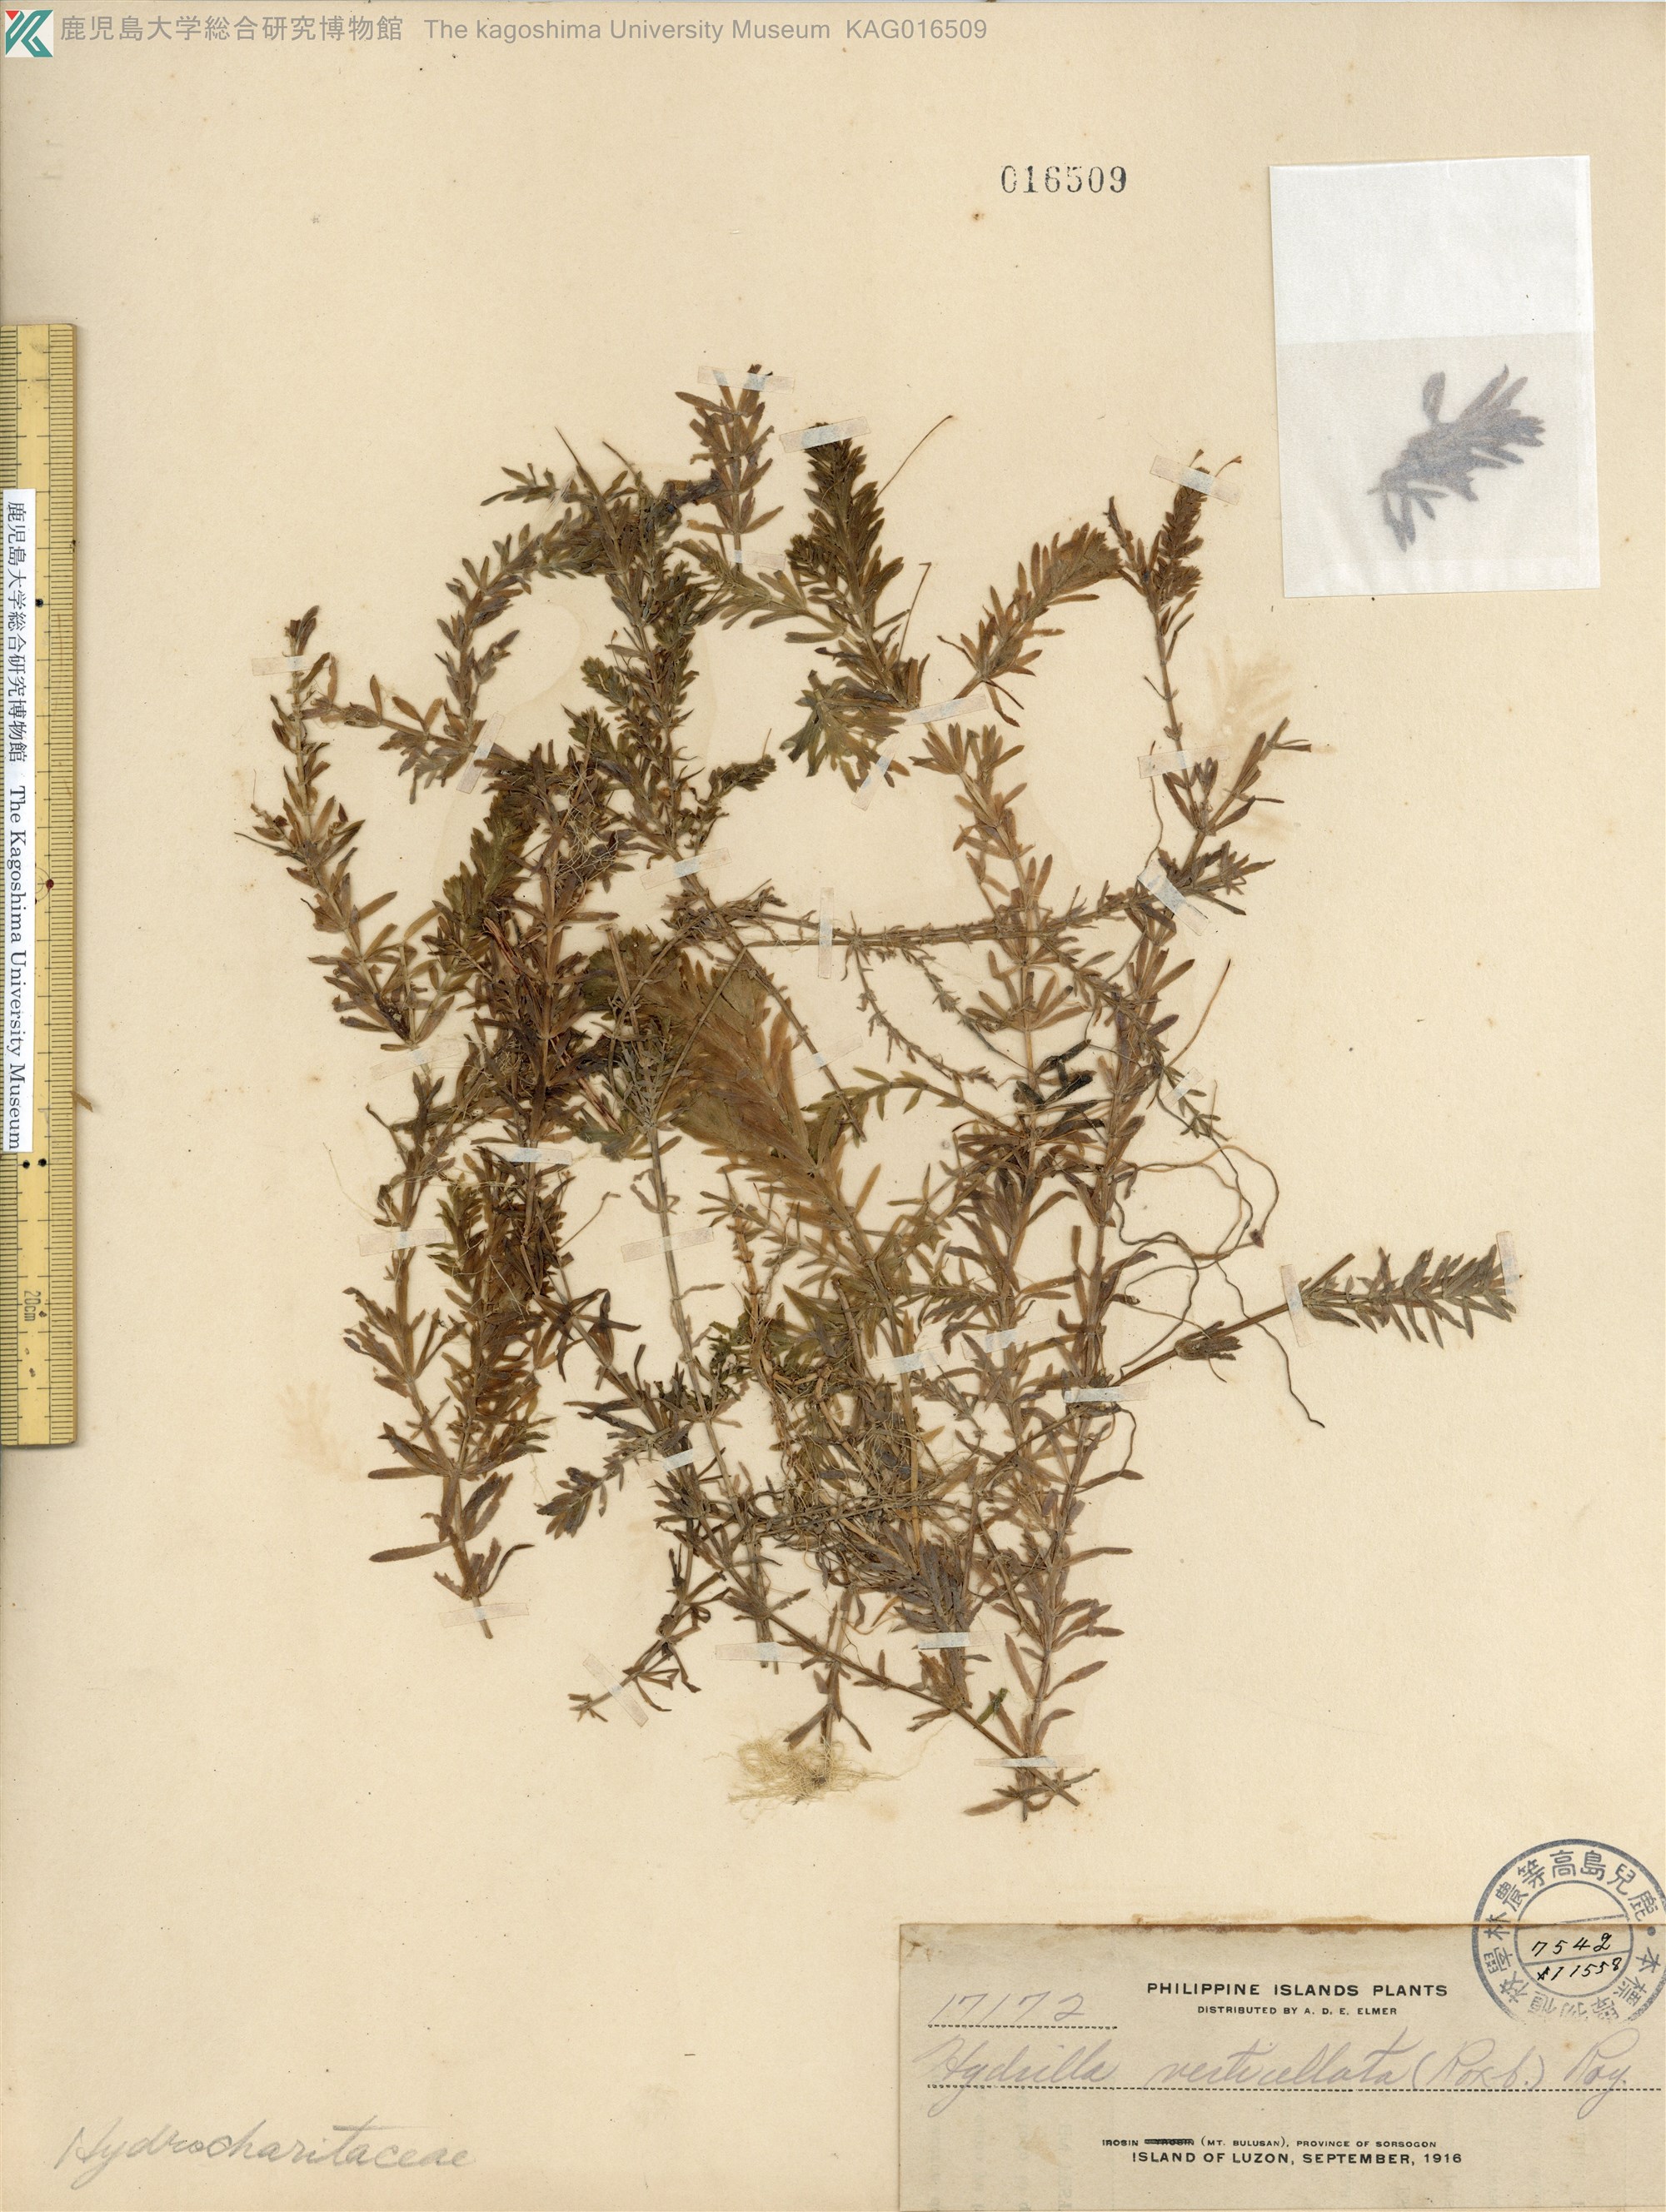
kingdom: Plantae
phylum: Tracheophyta
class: Liliopsida
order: Alismatales
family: Hydrocharitaceae
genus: Hydrilla
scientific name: Hydrilla verticillata
